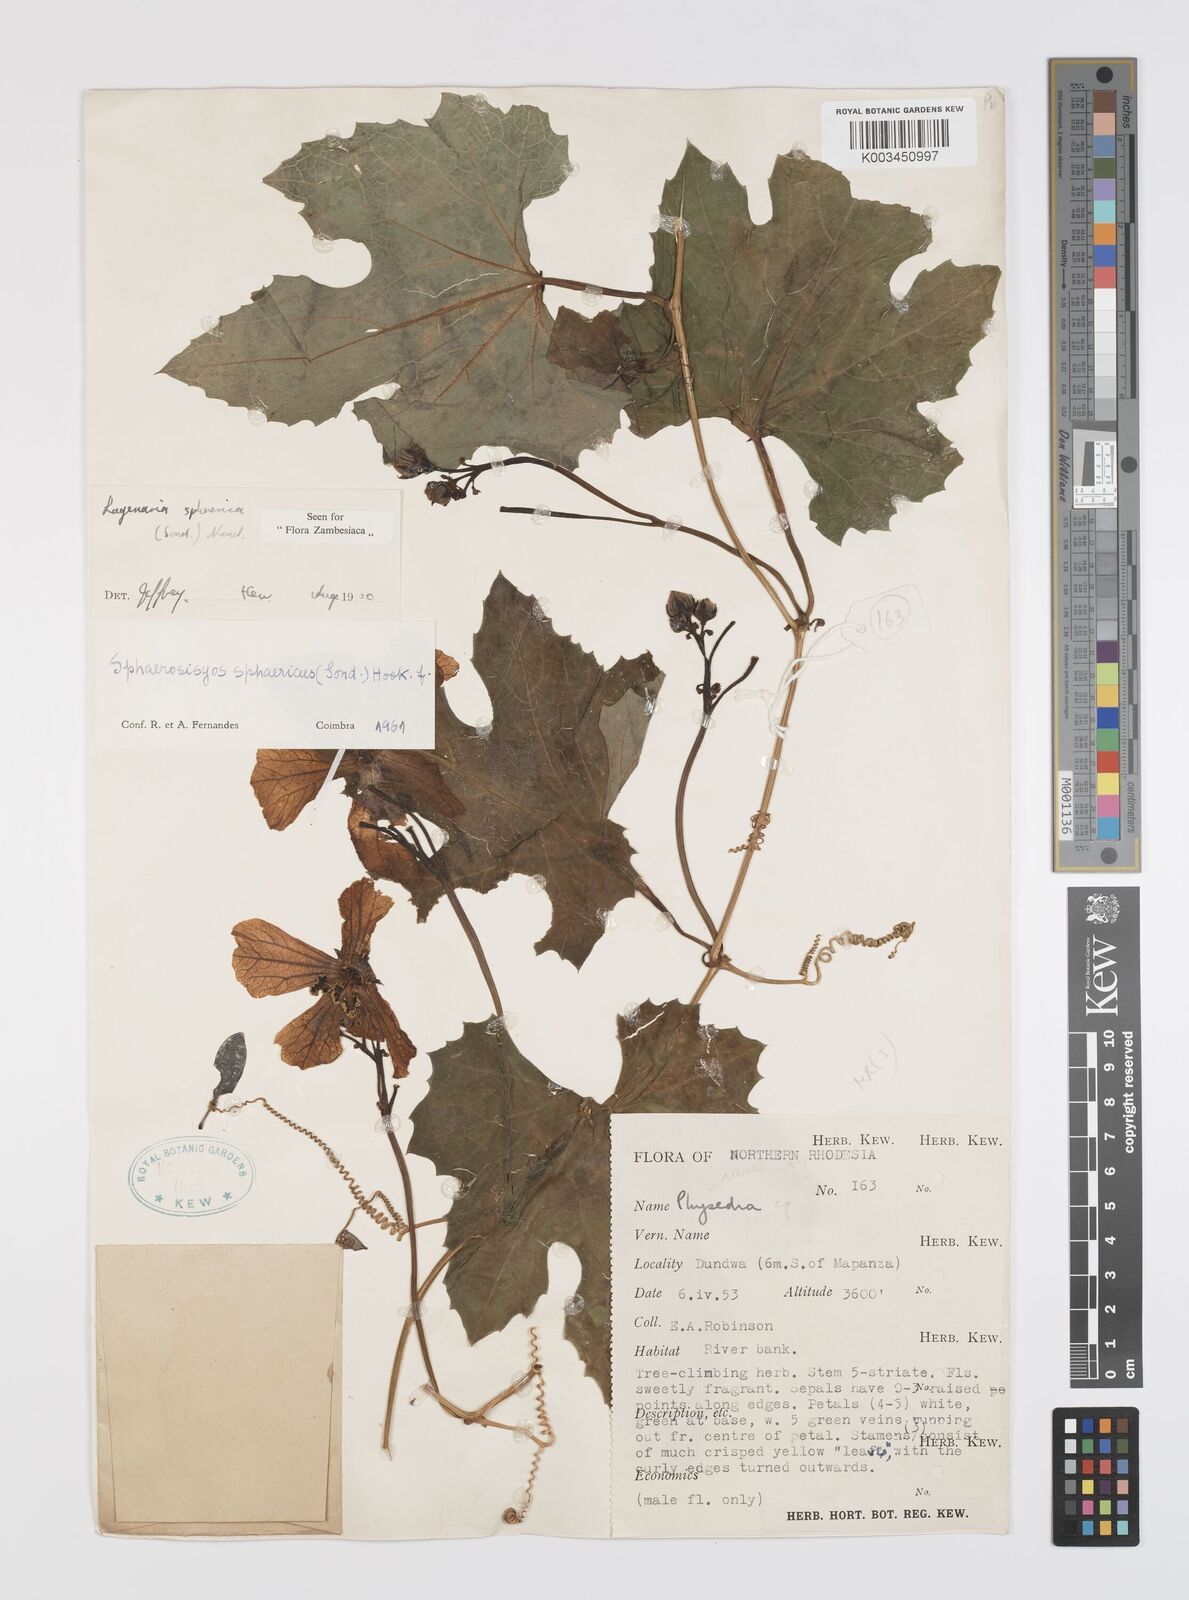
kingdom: Plantae
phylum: Tracheophyta
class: Magnoliopsida
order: Cucurbitales
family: Cucurbitaceae
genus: Lagenaria
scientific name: Lagenaria sphaerica
